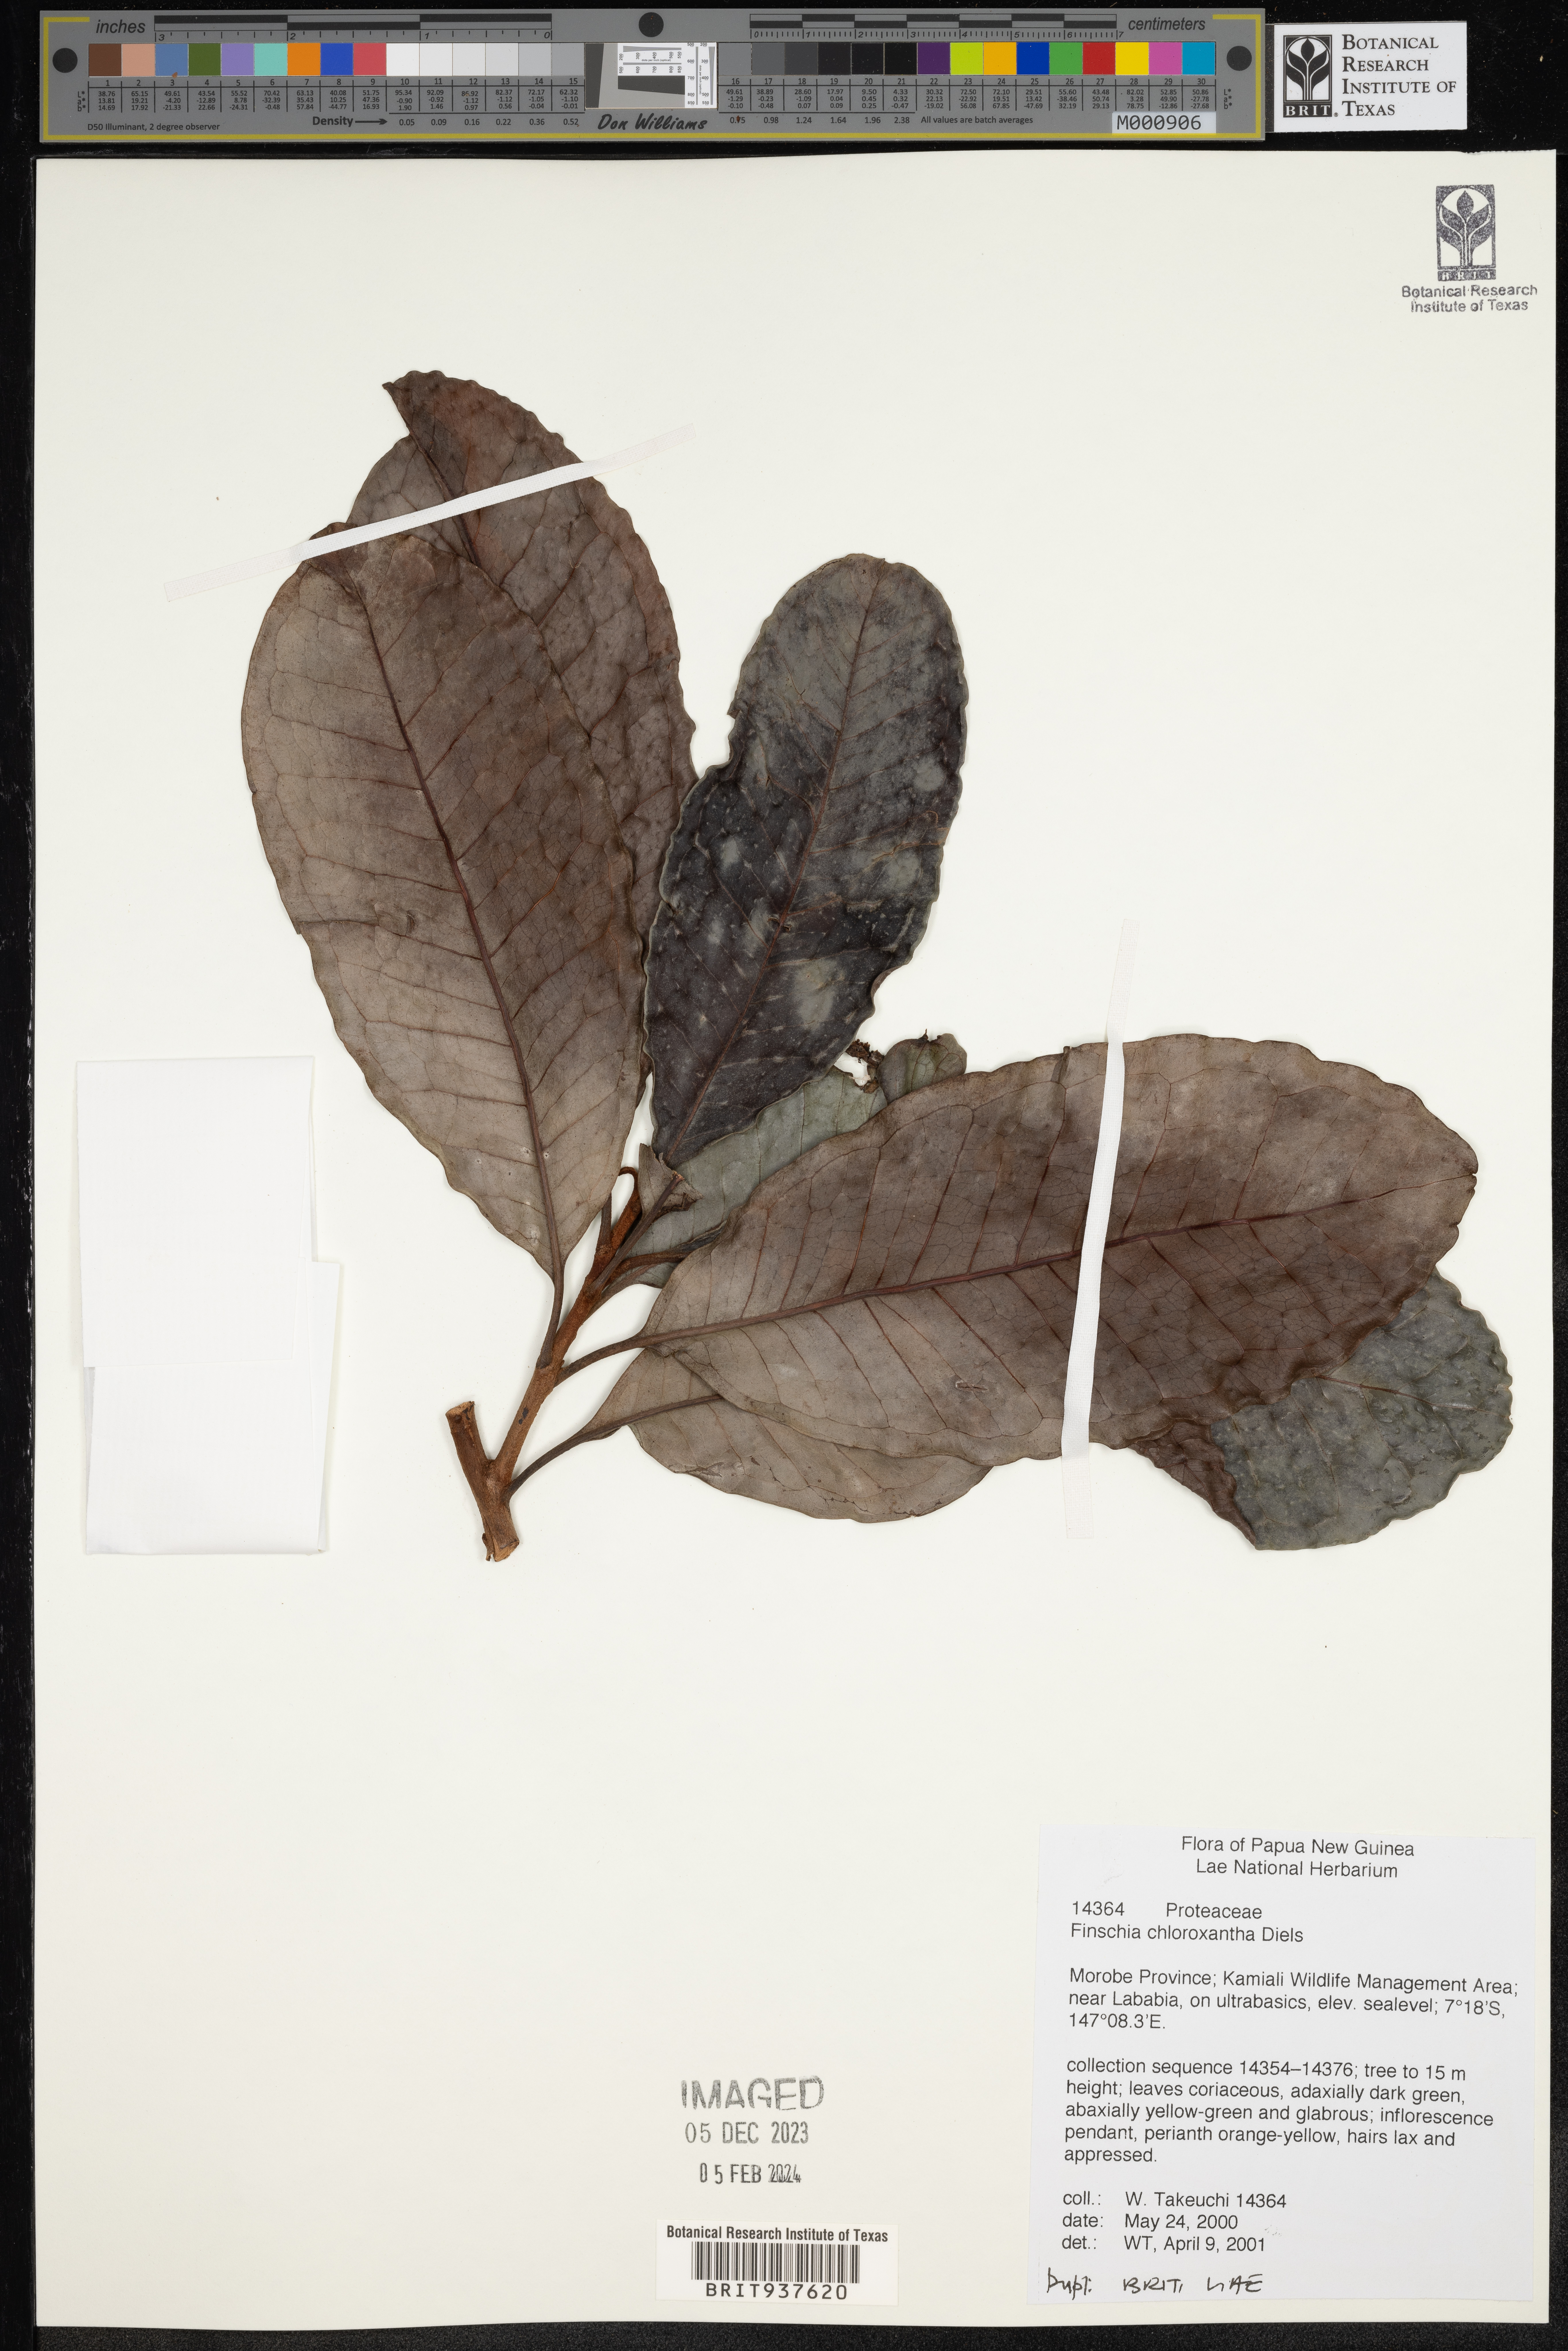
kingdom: Plantae
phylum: Tracheophyta
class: Magnoliopsida
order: Proteales
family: Proteaceae
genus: Finschia
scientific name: Finschia
